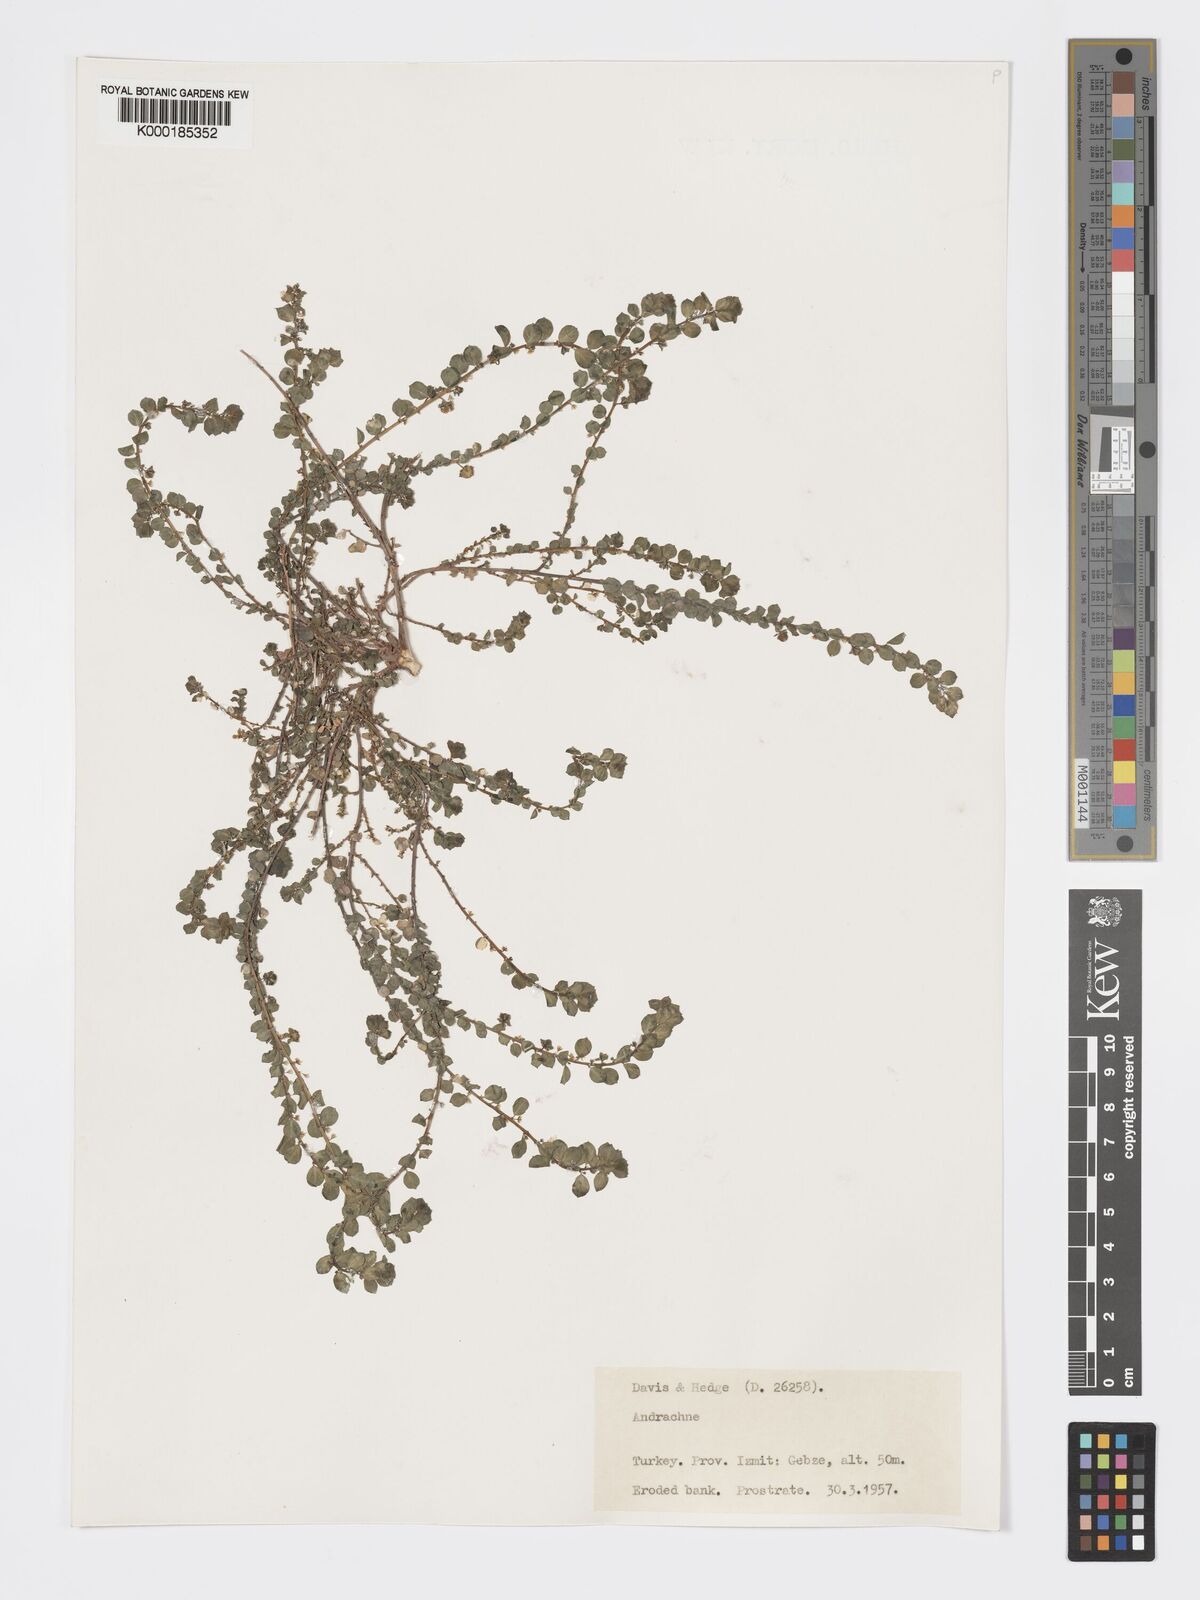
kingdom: Plantae
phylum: Tracheophyta
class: Magnoliopsida
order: Malpighiales
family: Phyllanthaceae
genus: Andrachne
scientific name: Andrachne telephioides
